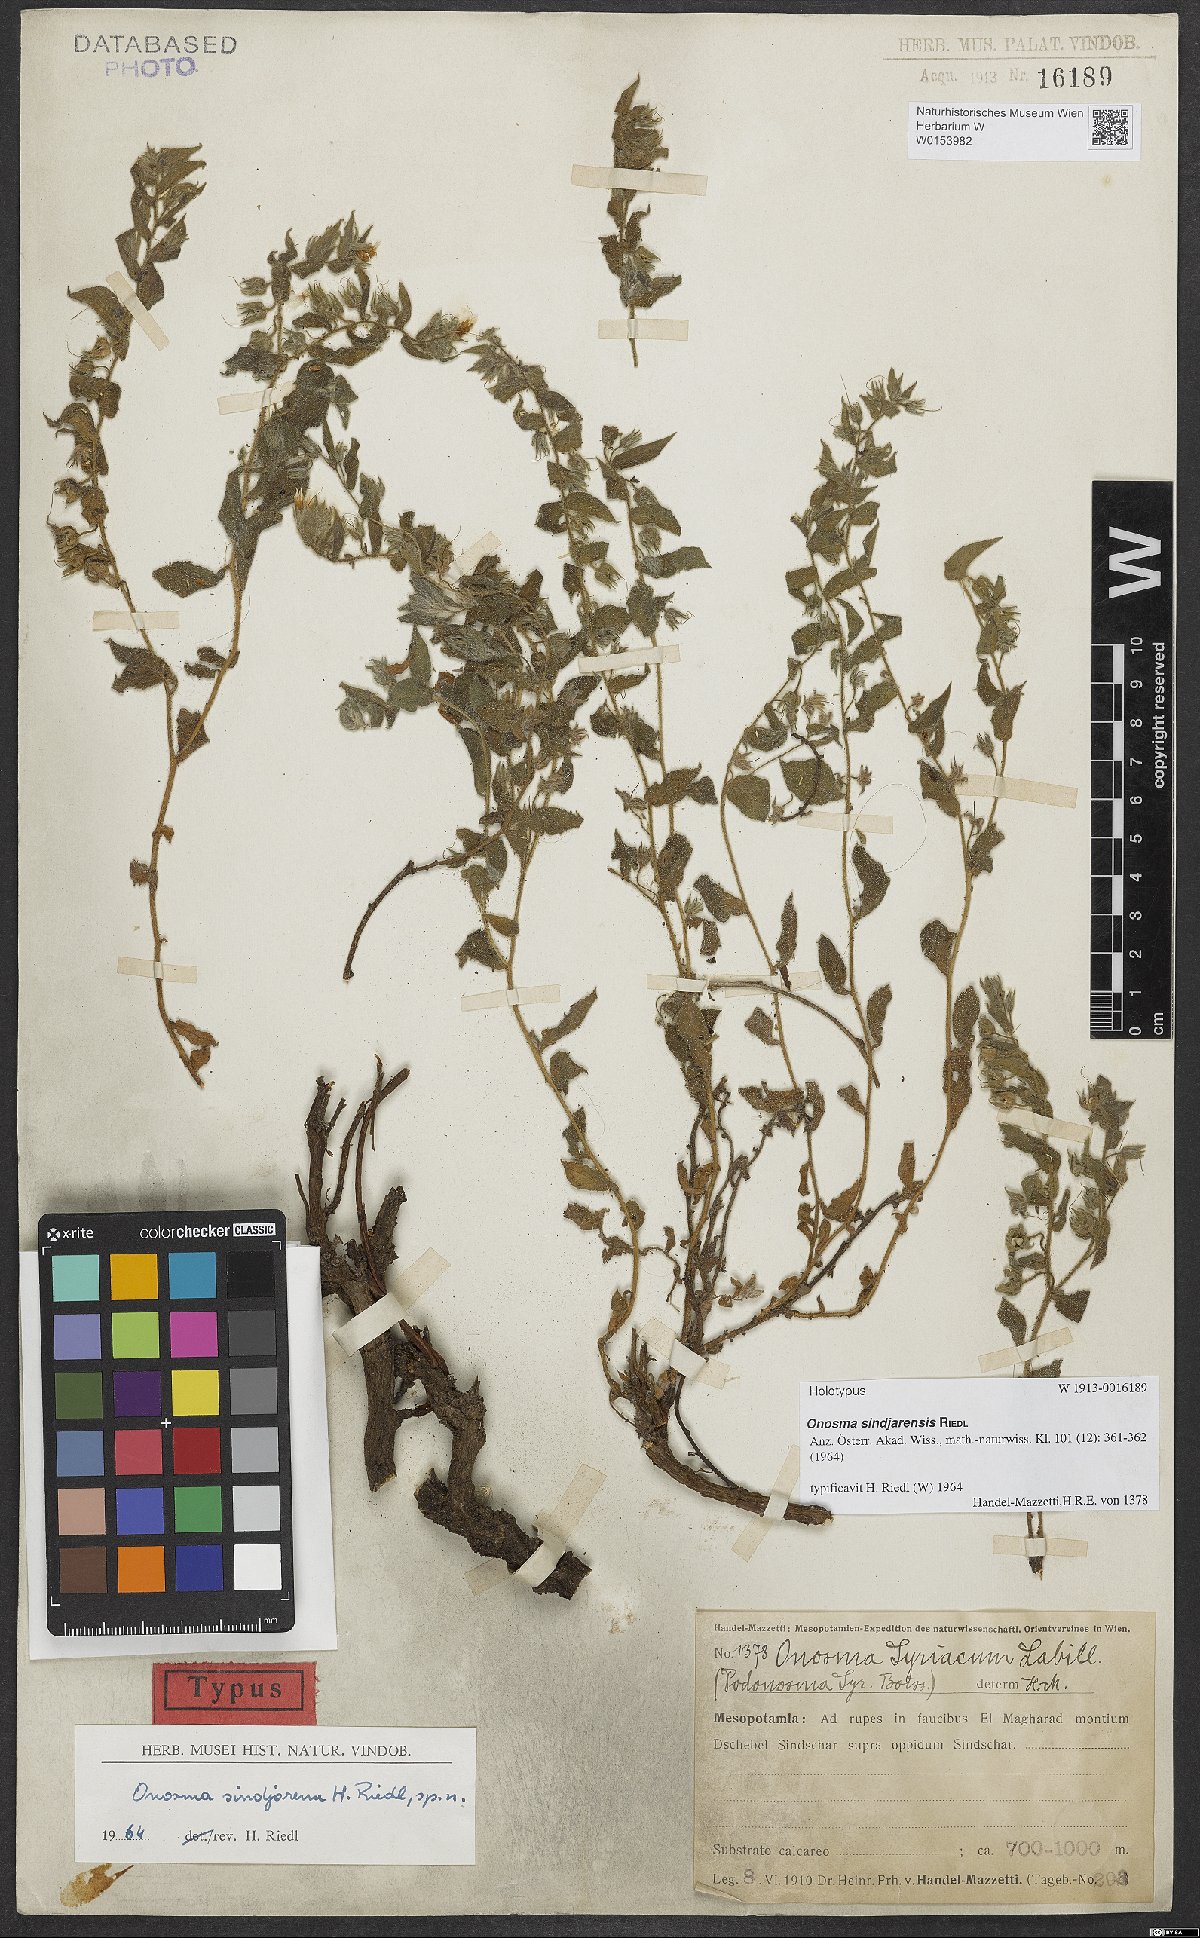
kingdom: Plantae
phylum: Tracheophyta
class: Magnoliopsida
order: Boraginales
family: Boraginaceae
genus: Podonosma
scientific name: Podonosma sindjarensis
